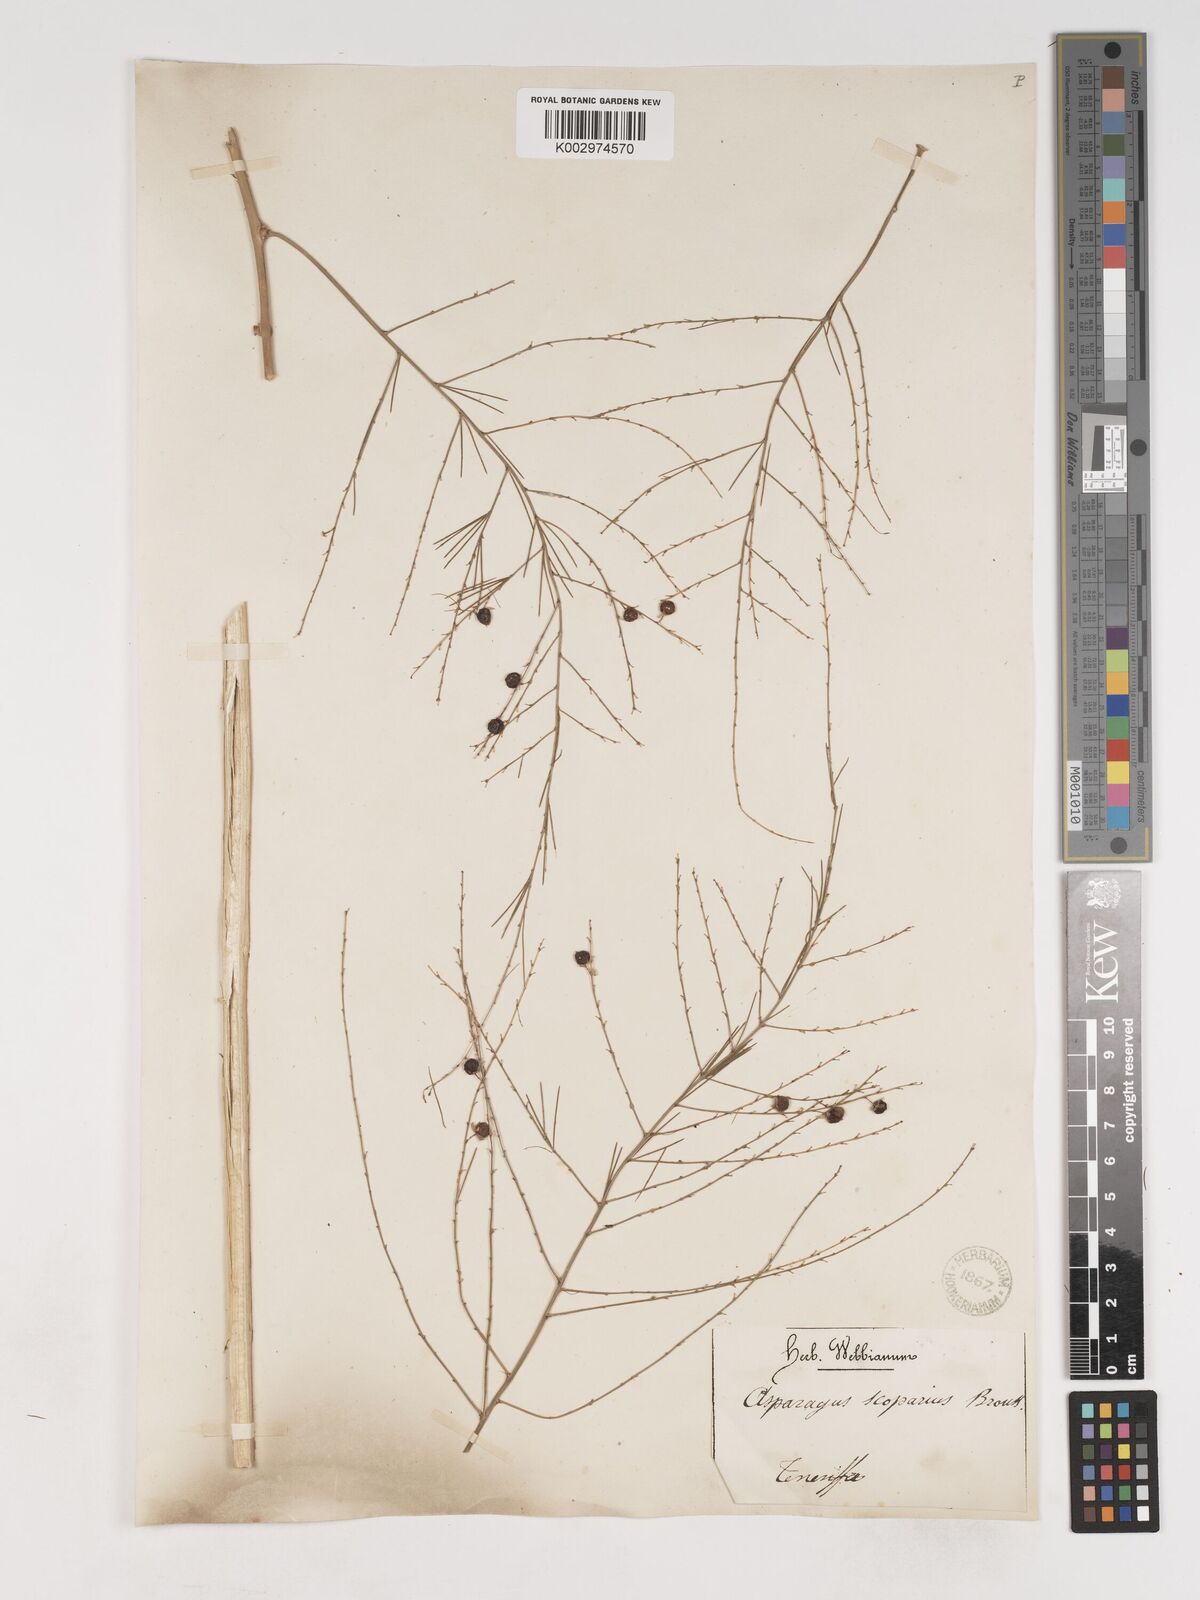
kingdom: Plantae
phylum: Tracheophyta
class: Liliopsida
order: Asparagales
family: Asparagaceae
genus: Asparagus
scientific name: Asparagus scoparius
